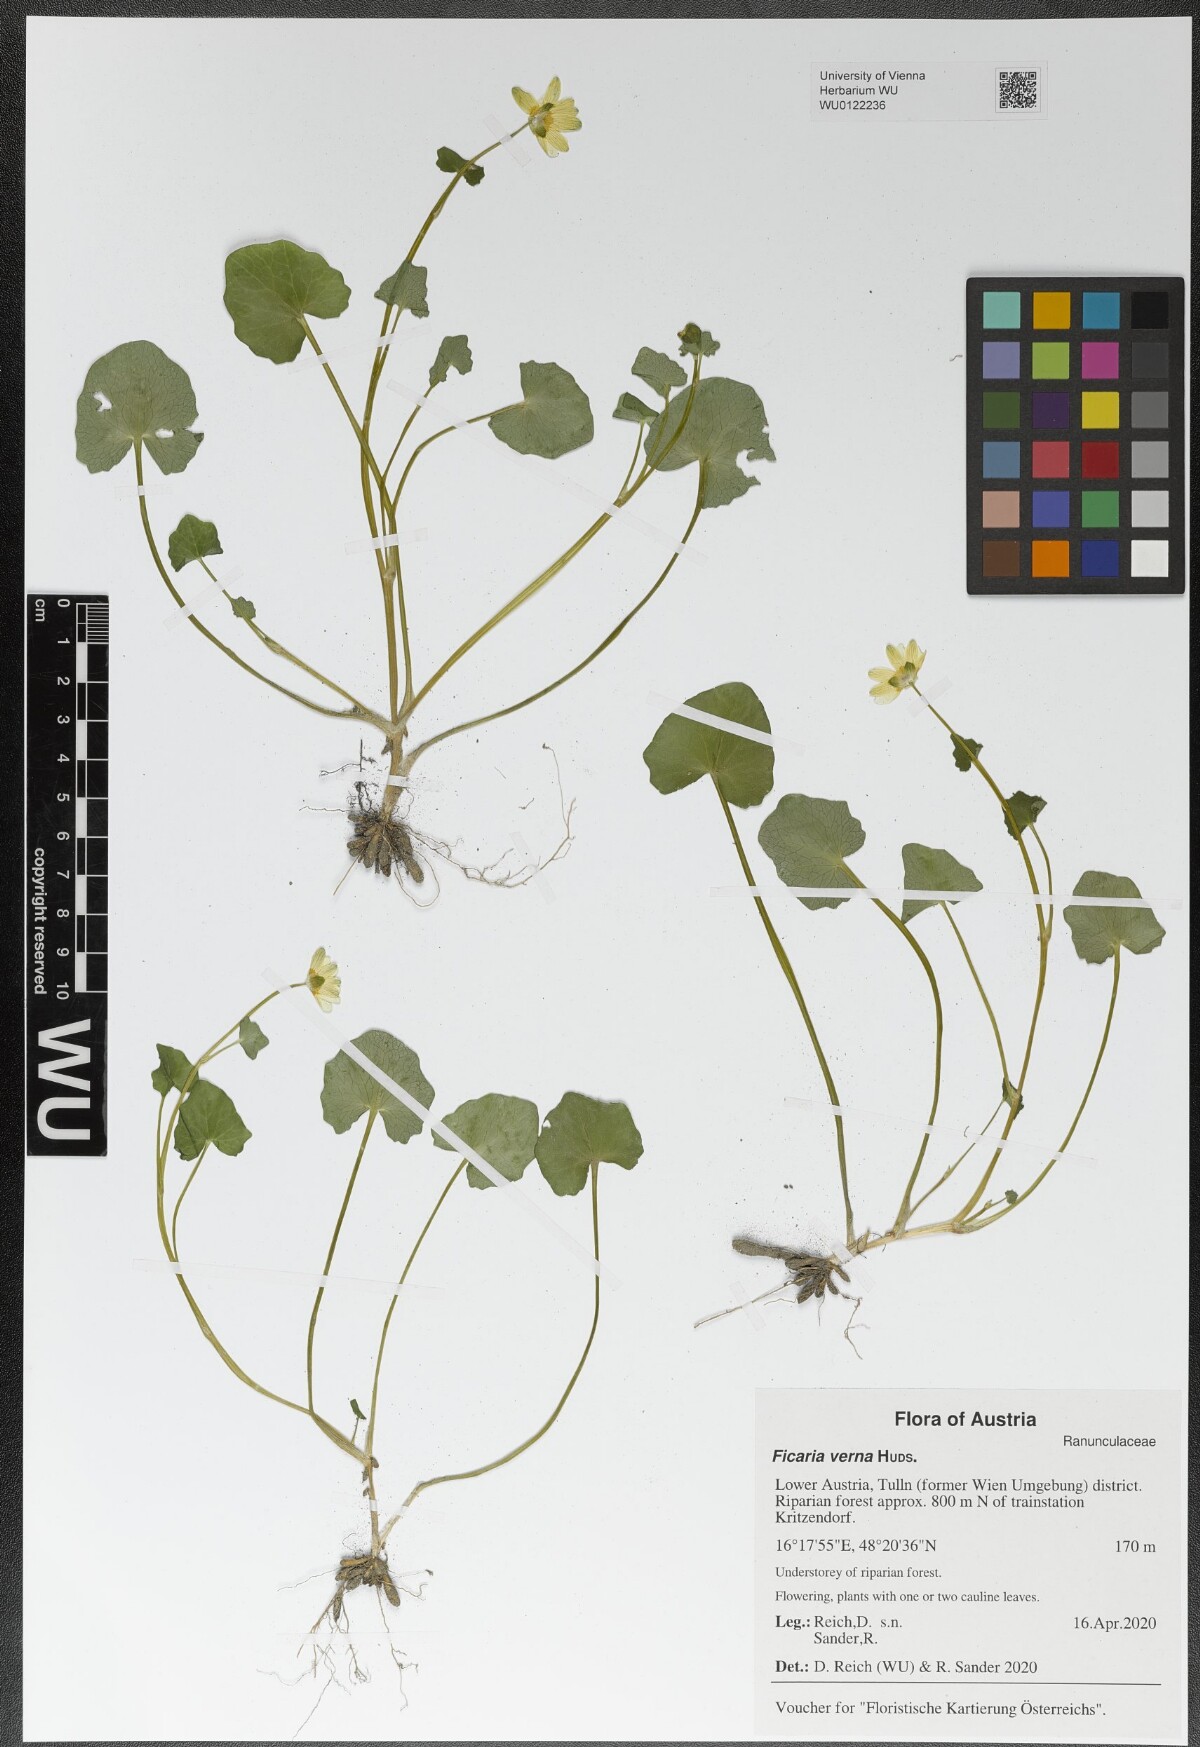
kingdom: Plantae
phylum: Tracheophyta
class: Magnoliopsida
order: Ranunculales
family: Ranunculaceae
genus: Ficaria
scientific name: Ficaria verna
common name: Lesser celandine
